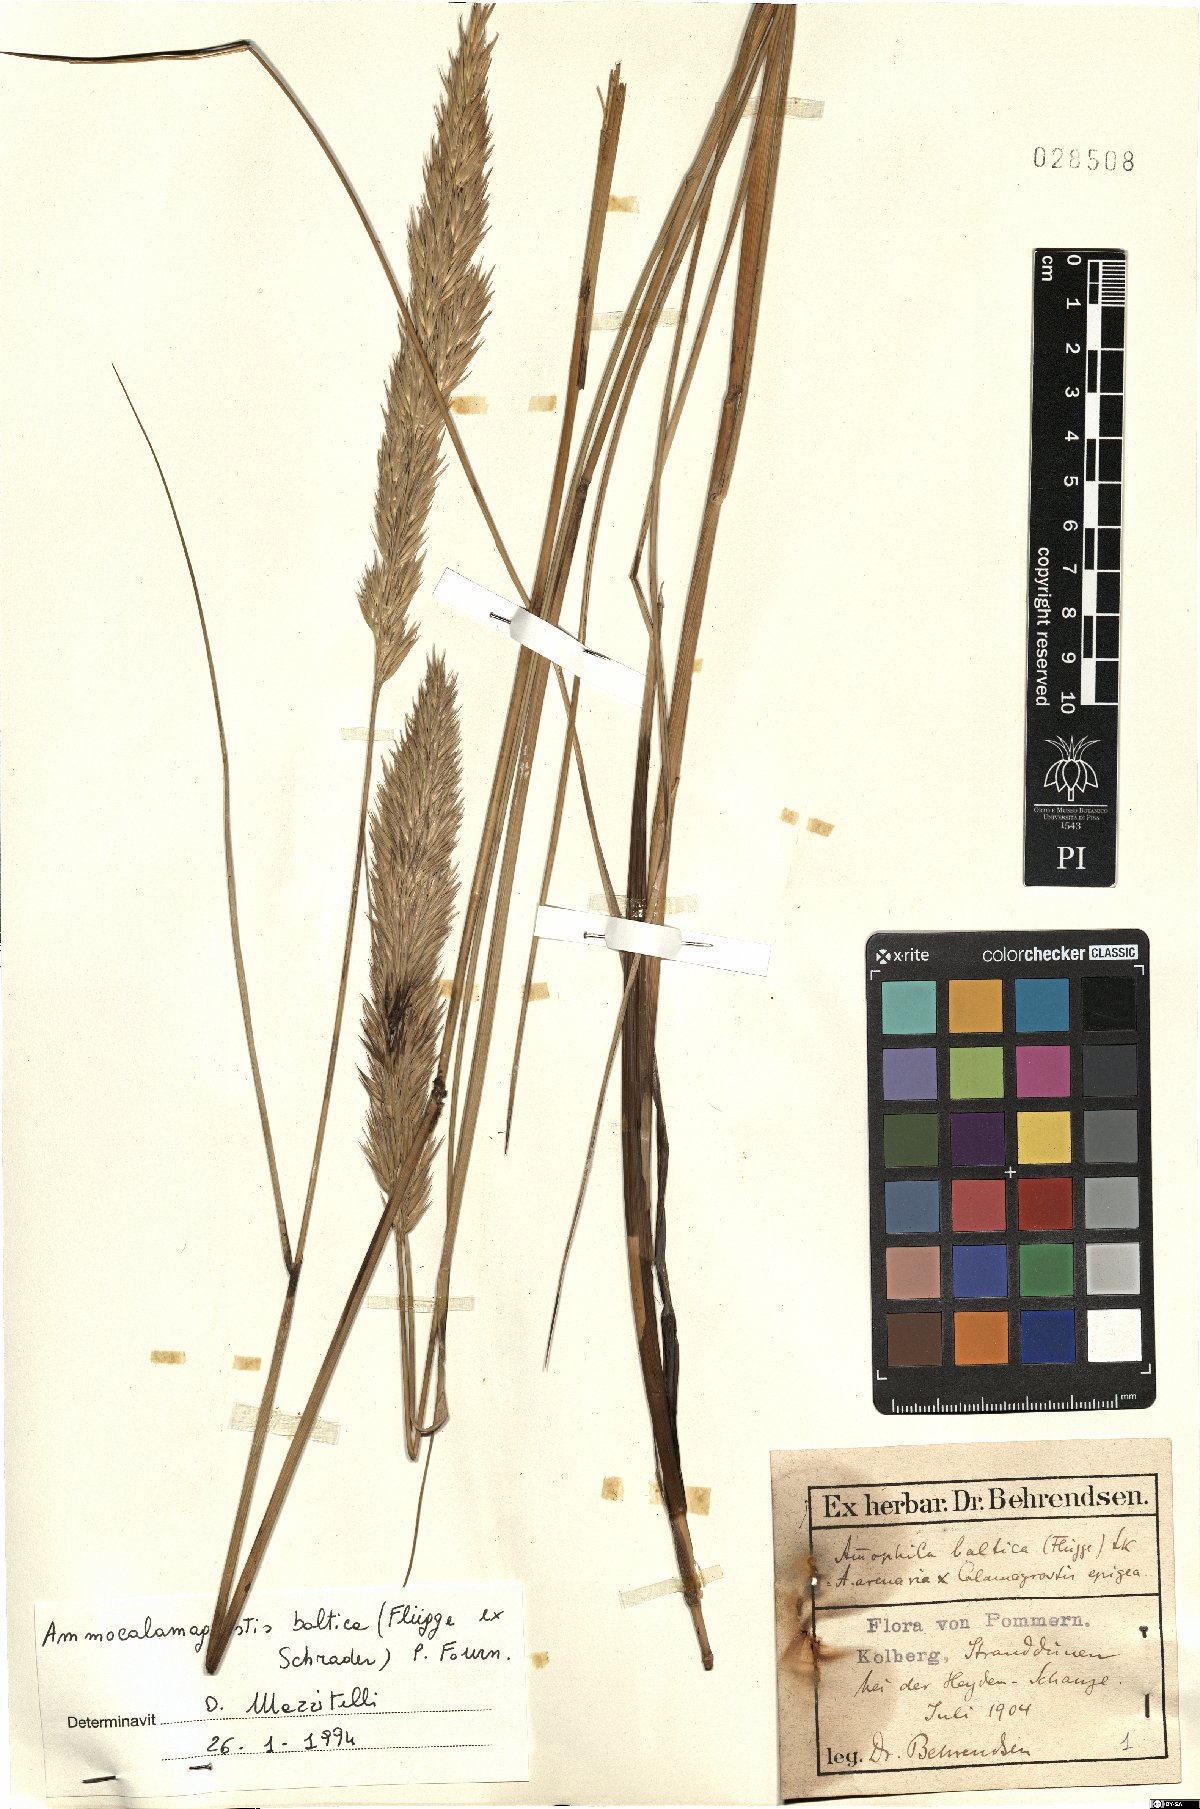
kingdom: Plantae
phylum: Tracheophyta
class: Liliopsida
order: Poales
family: Poaceae
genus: Calamagrostis
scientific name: Calamagrostis baltica
